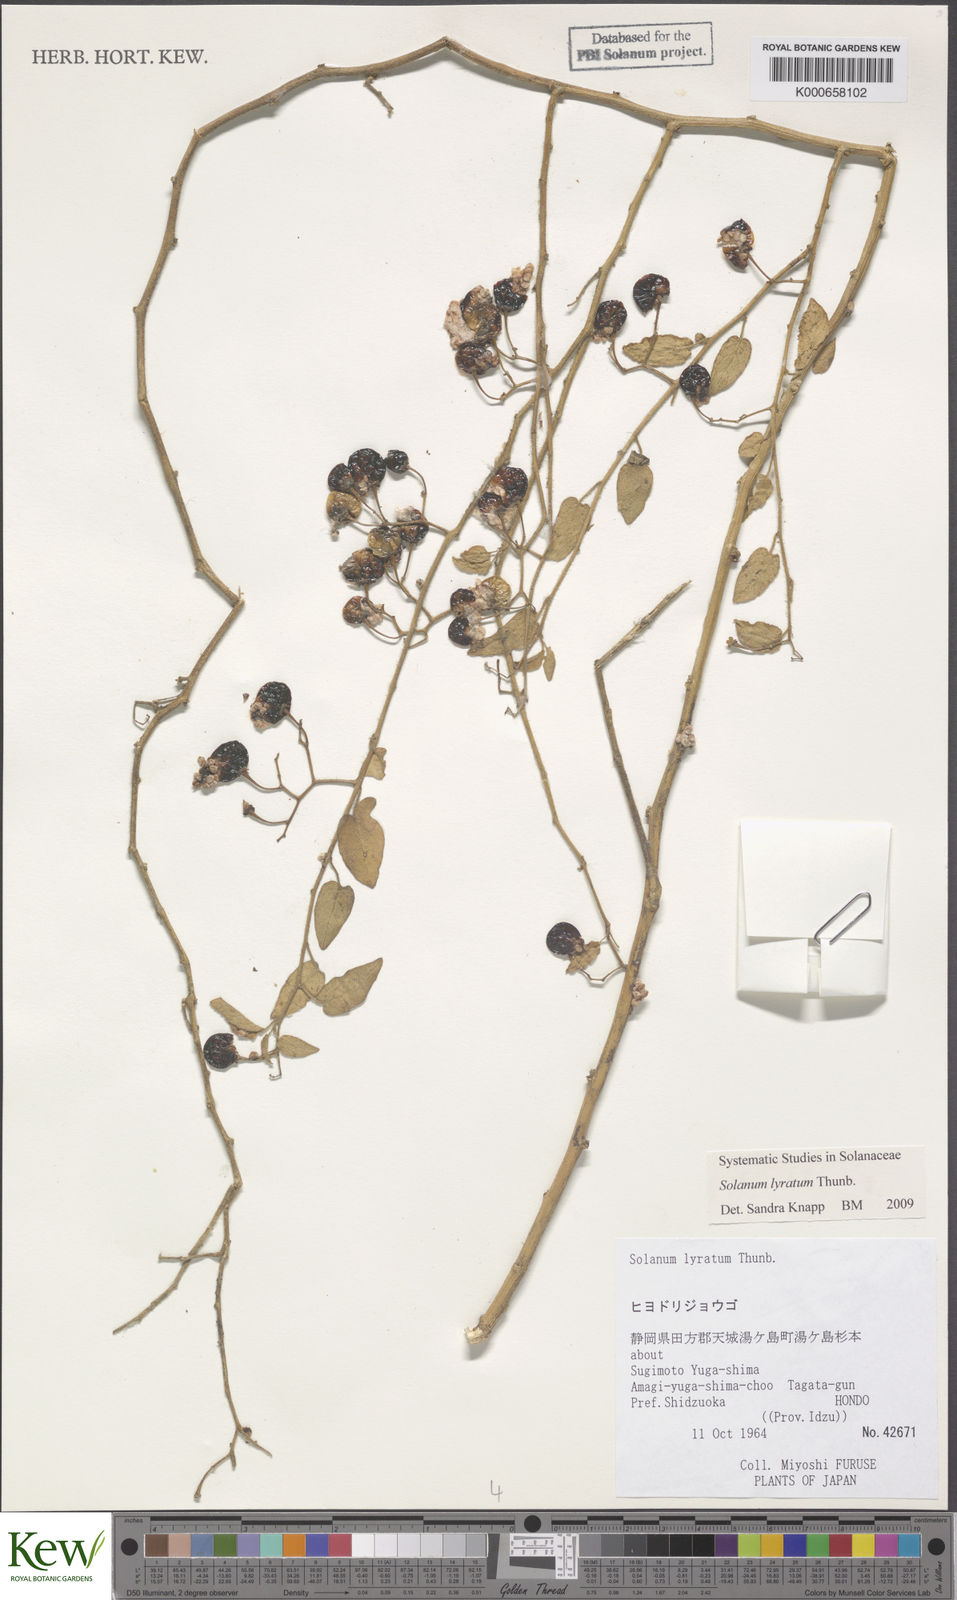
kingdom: Plantae
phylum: Tracheophyta
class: Magnoliopsida
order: Solanales
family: Solanaceae
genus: Solanum
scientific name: Solanum lyratum
